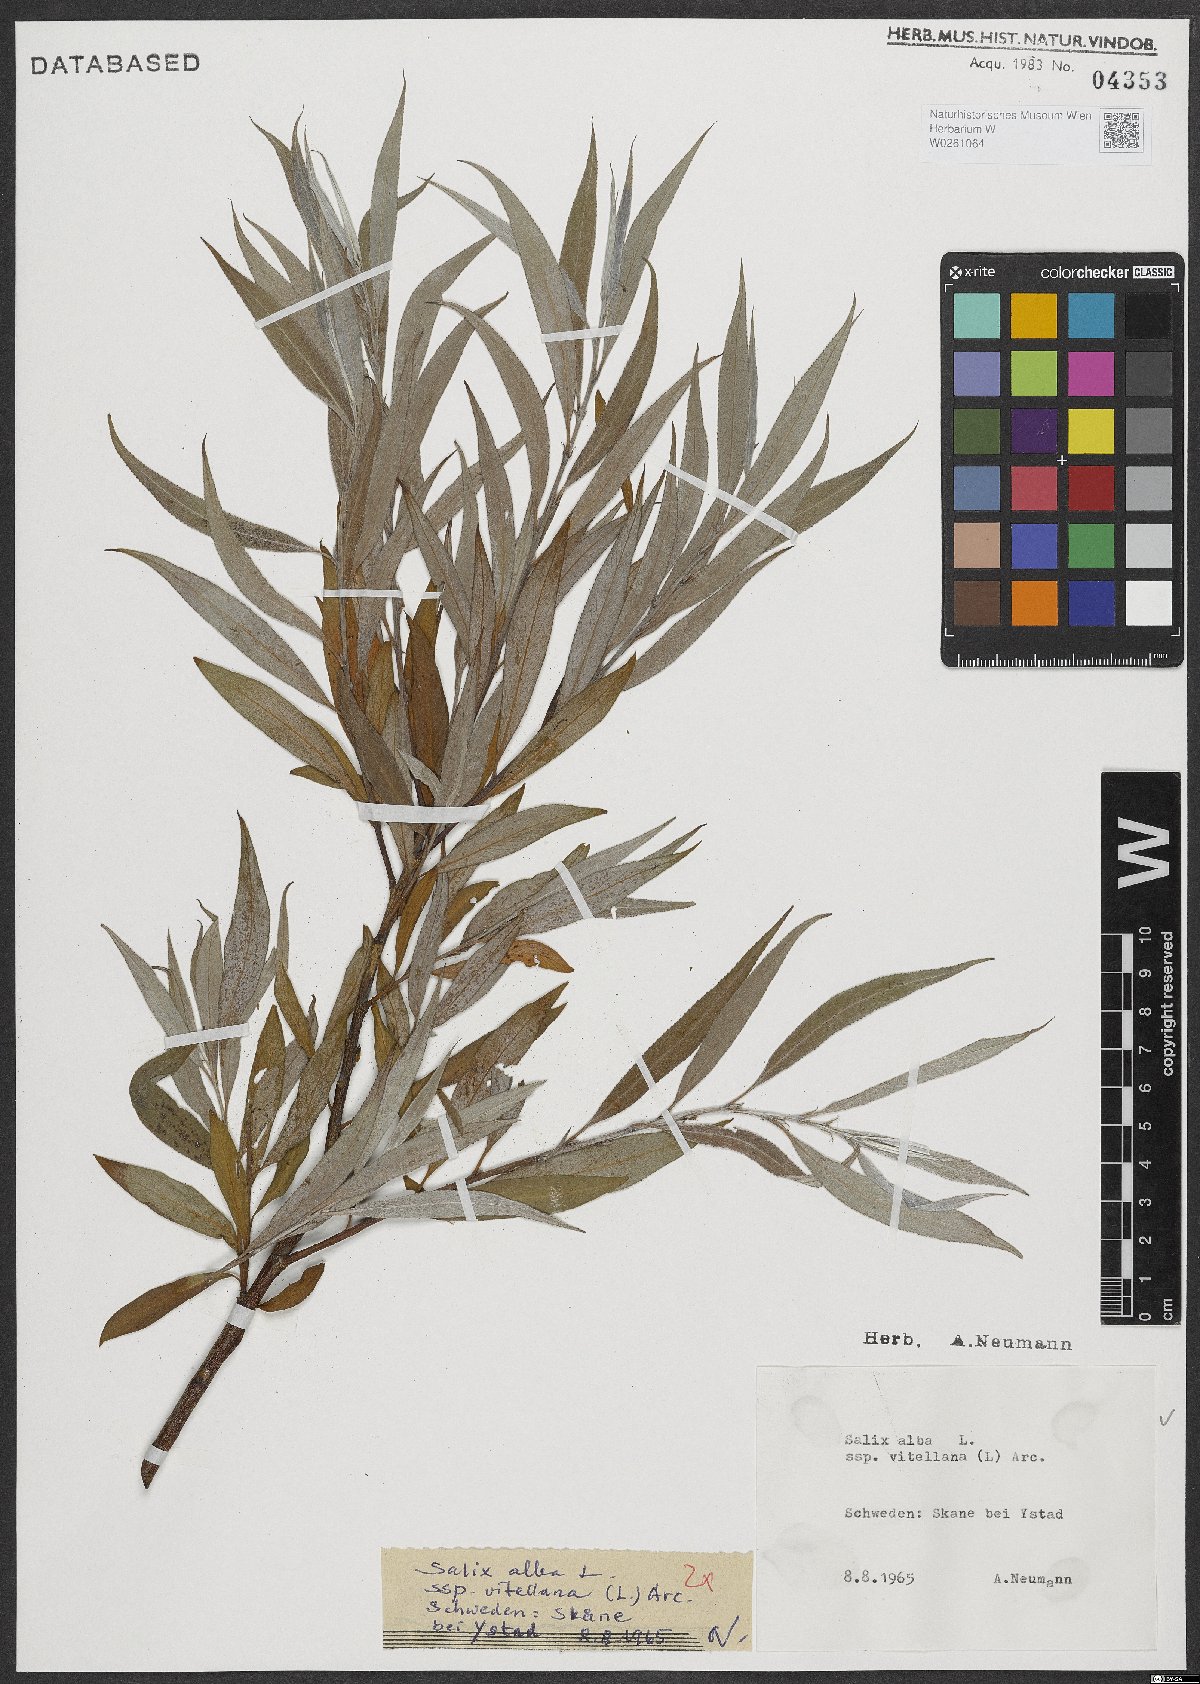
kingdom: Plantae
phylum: Tracheophyta
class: Magnoliopsida
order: Malpighiales
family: Salicaceae
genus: Salix
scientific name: Salix alba
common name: White willow
